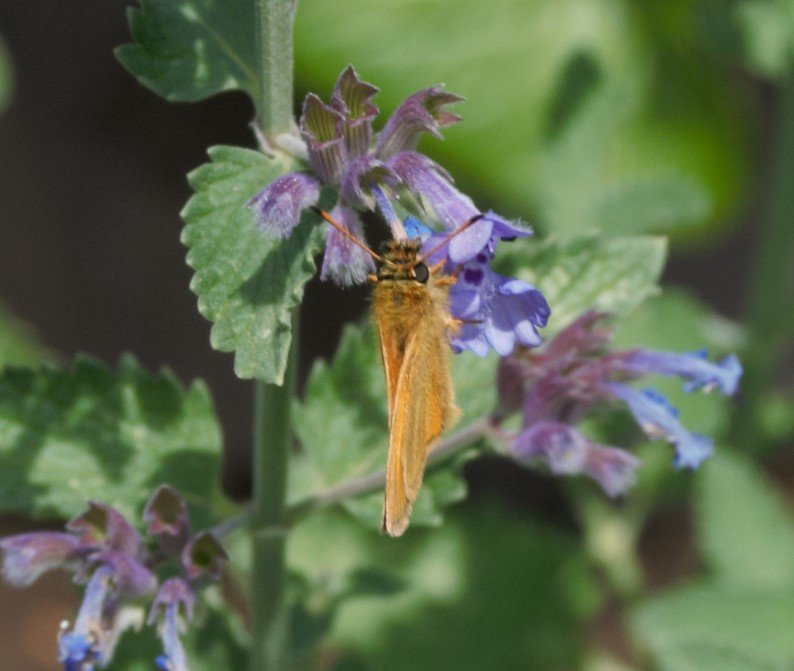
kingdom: Animalia
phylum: Arthropoda
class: Insecta
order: Lepidoptera
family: Hesperiidae
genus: Thymelicus
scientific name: Thymelicus lineola
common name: European Skipper
